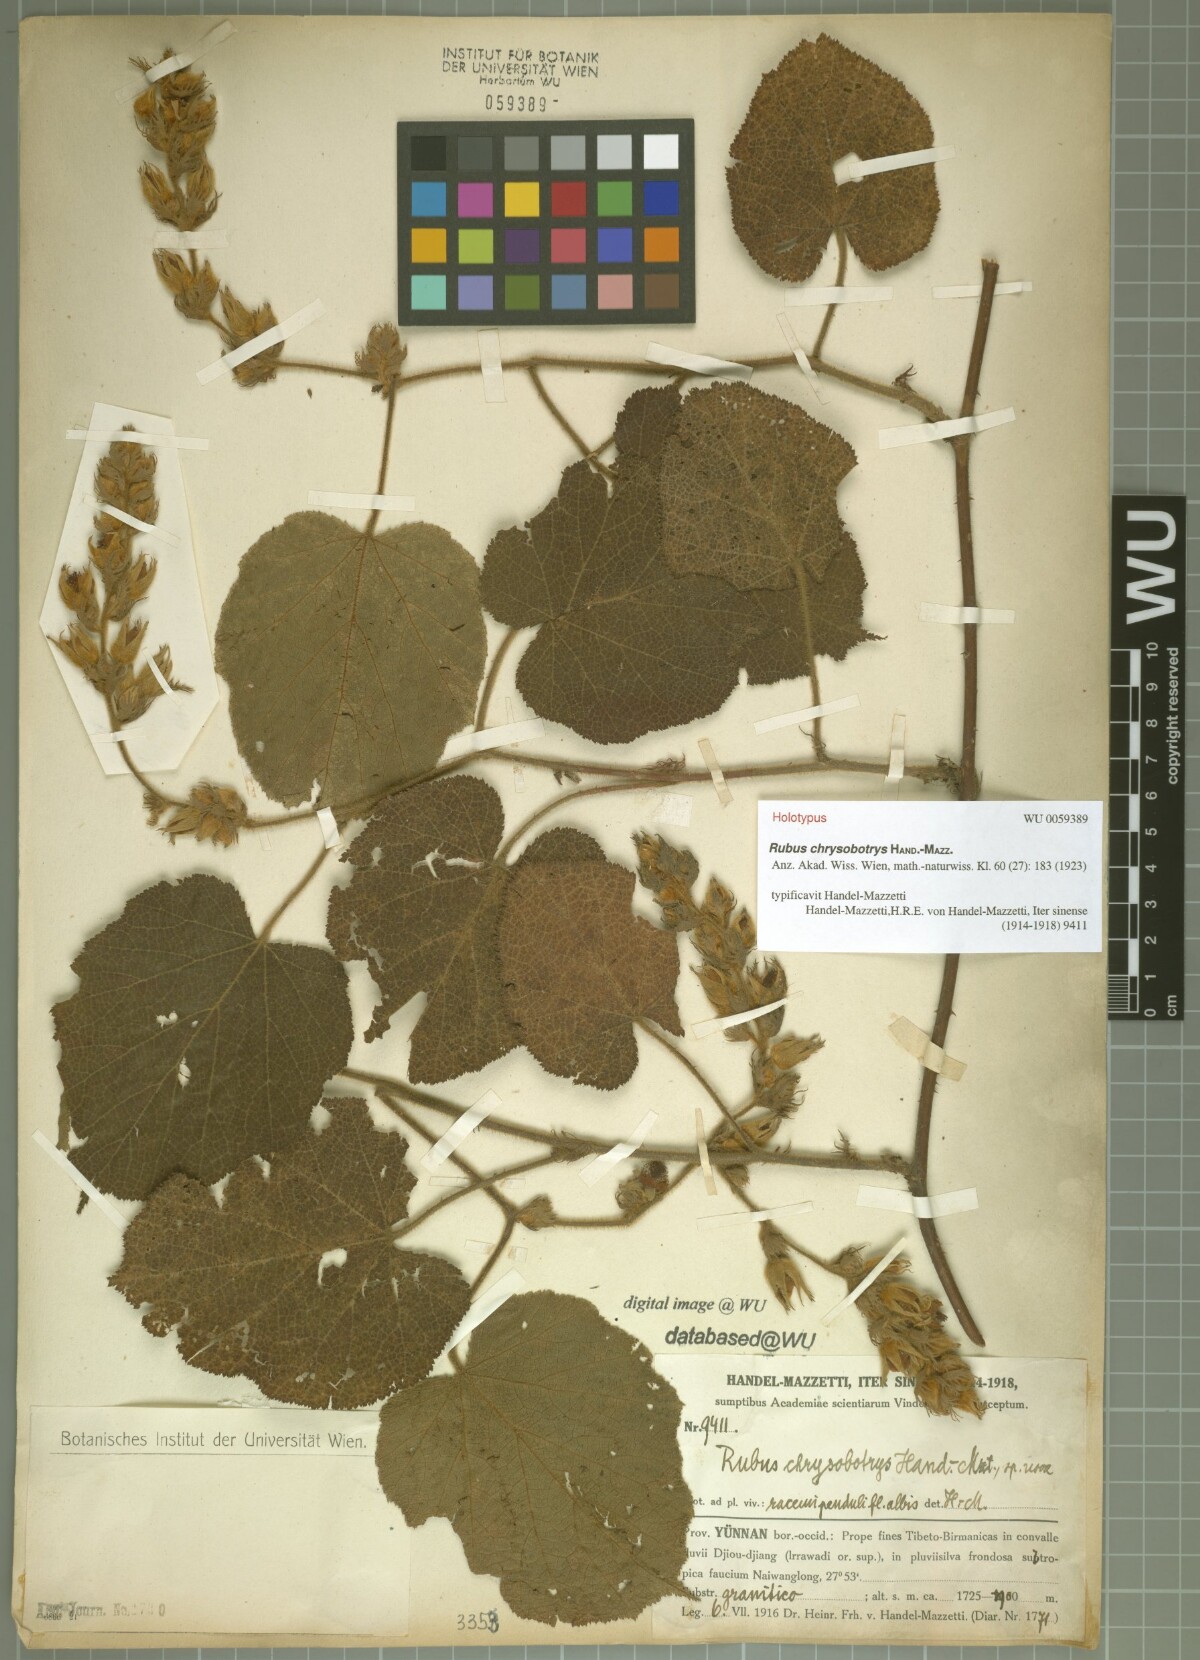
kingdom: Plantae
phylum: Tracheophyta
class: Magnoliopsida
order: Rosales
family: Rosaceae
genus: Rubus
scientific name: Rubus chrysobotrys
